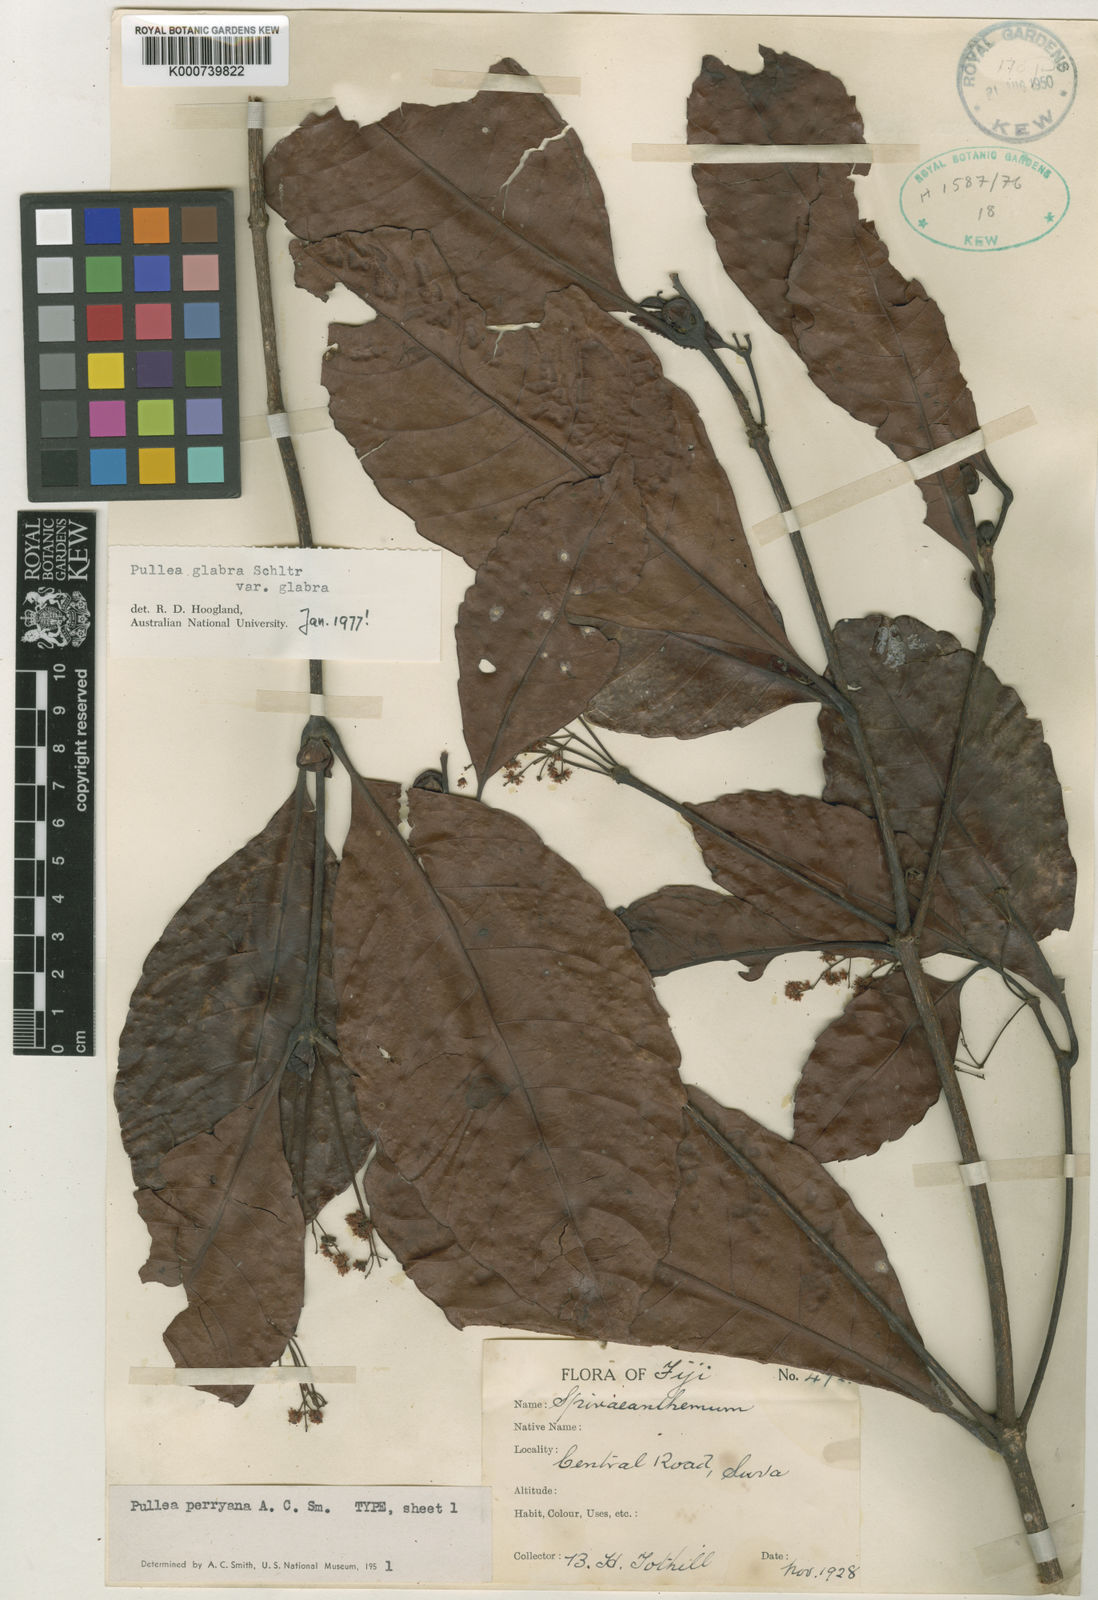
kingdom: Plantae
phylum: Tracheophyta
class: Magnoliopsida
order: Oxalidales
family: Cunoniaceae
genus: Pullea
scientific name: Pullea glabra
